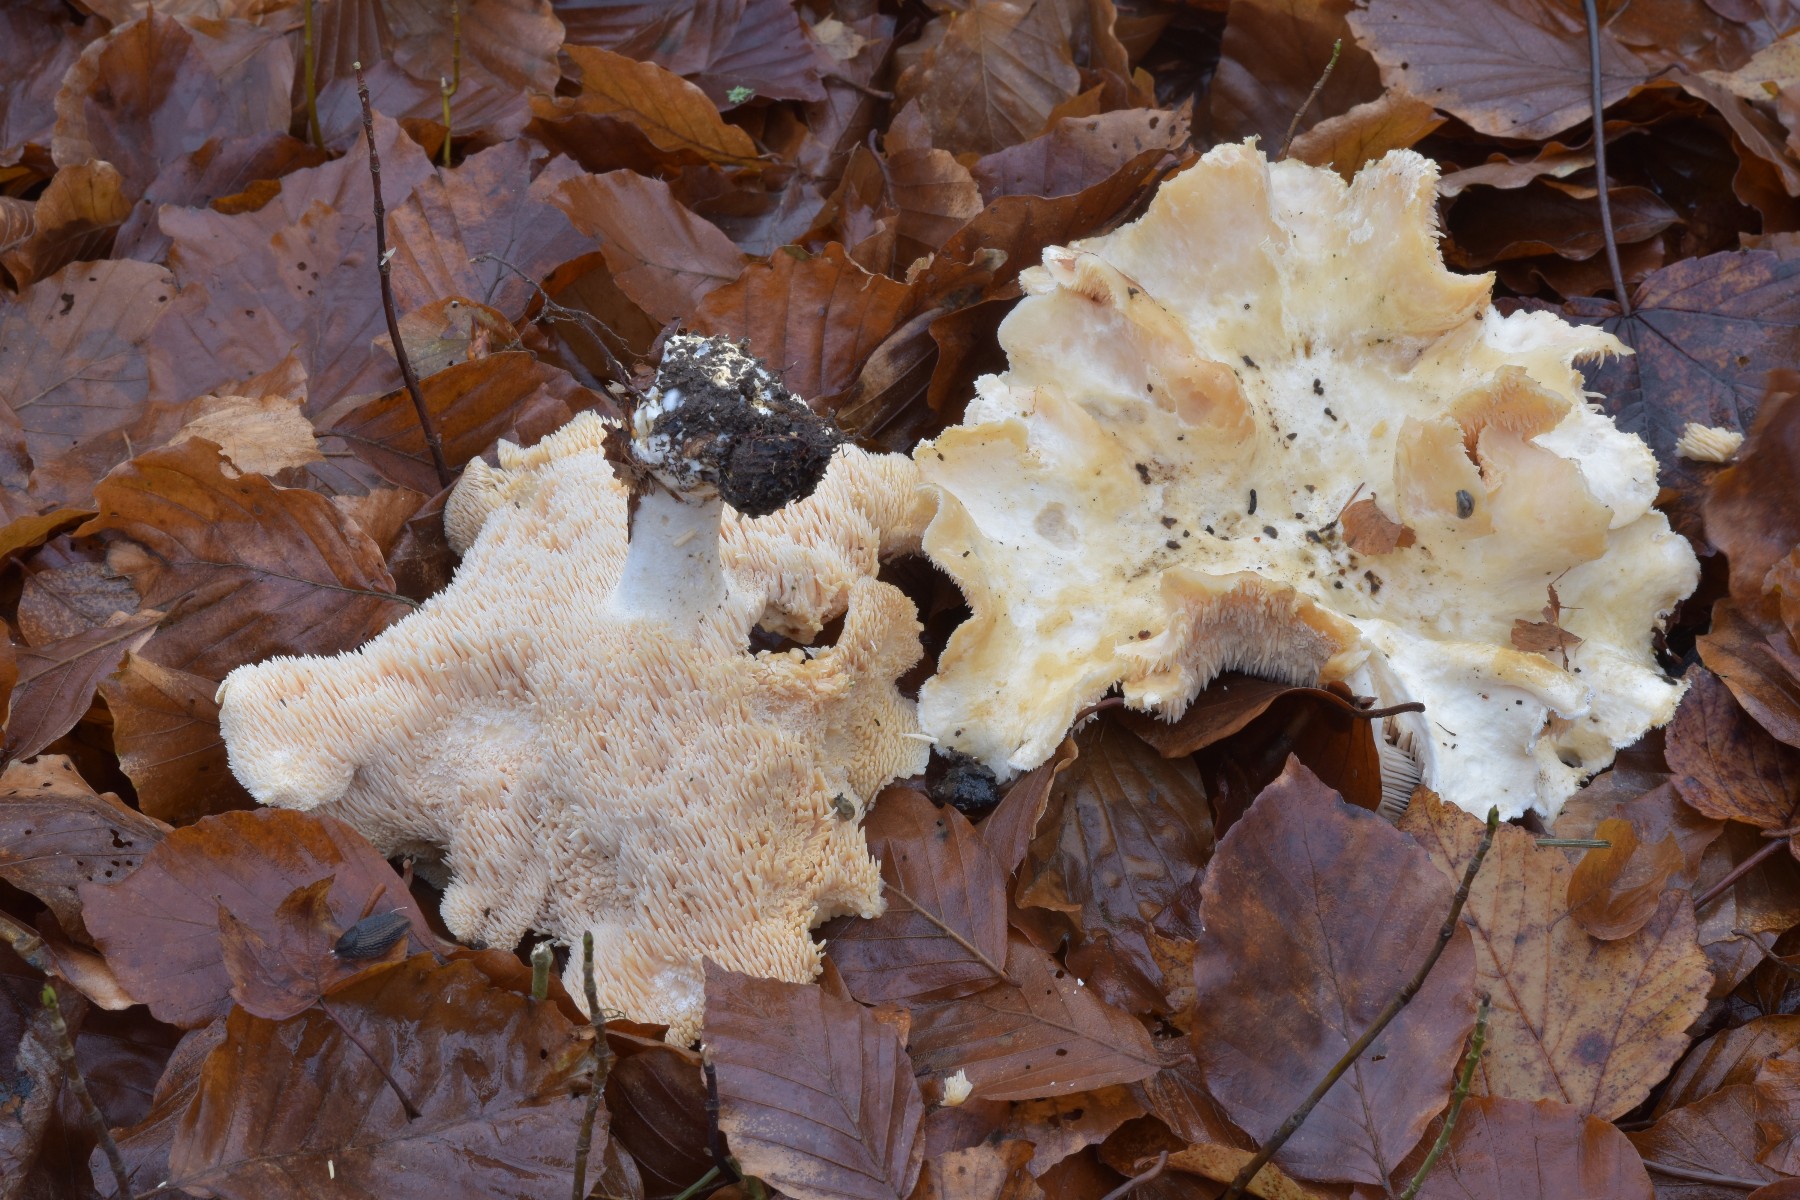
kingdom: Fungi
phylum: Basidiomycota
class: Agaricomycetes
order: Cantharellales
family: Hydnaceae
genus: Hydnum
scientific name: Hydnum repandum
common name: almindelig pigsvamp
